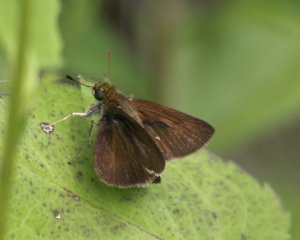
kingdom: Animalia
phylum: Arthropoda
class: Insecta
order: Lepidoptera
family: Hesperiidae
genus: Euphyes
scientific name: Euphyes vestris
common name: Dun Skipper
